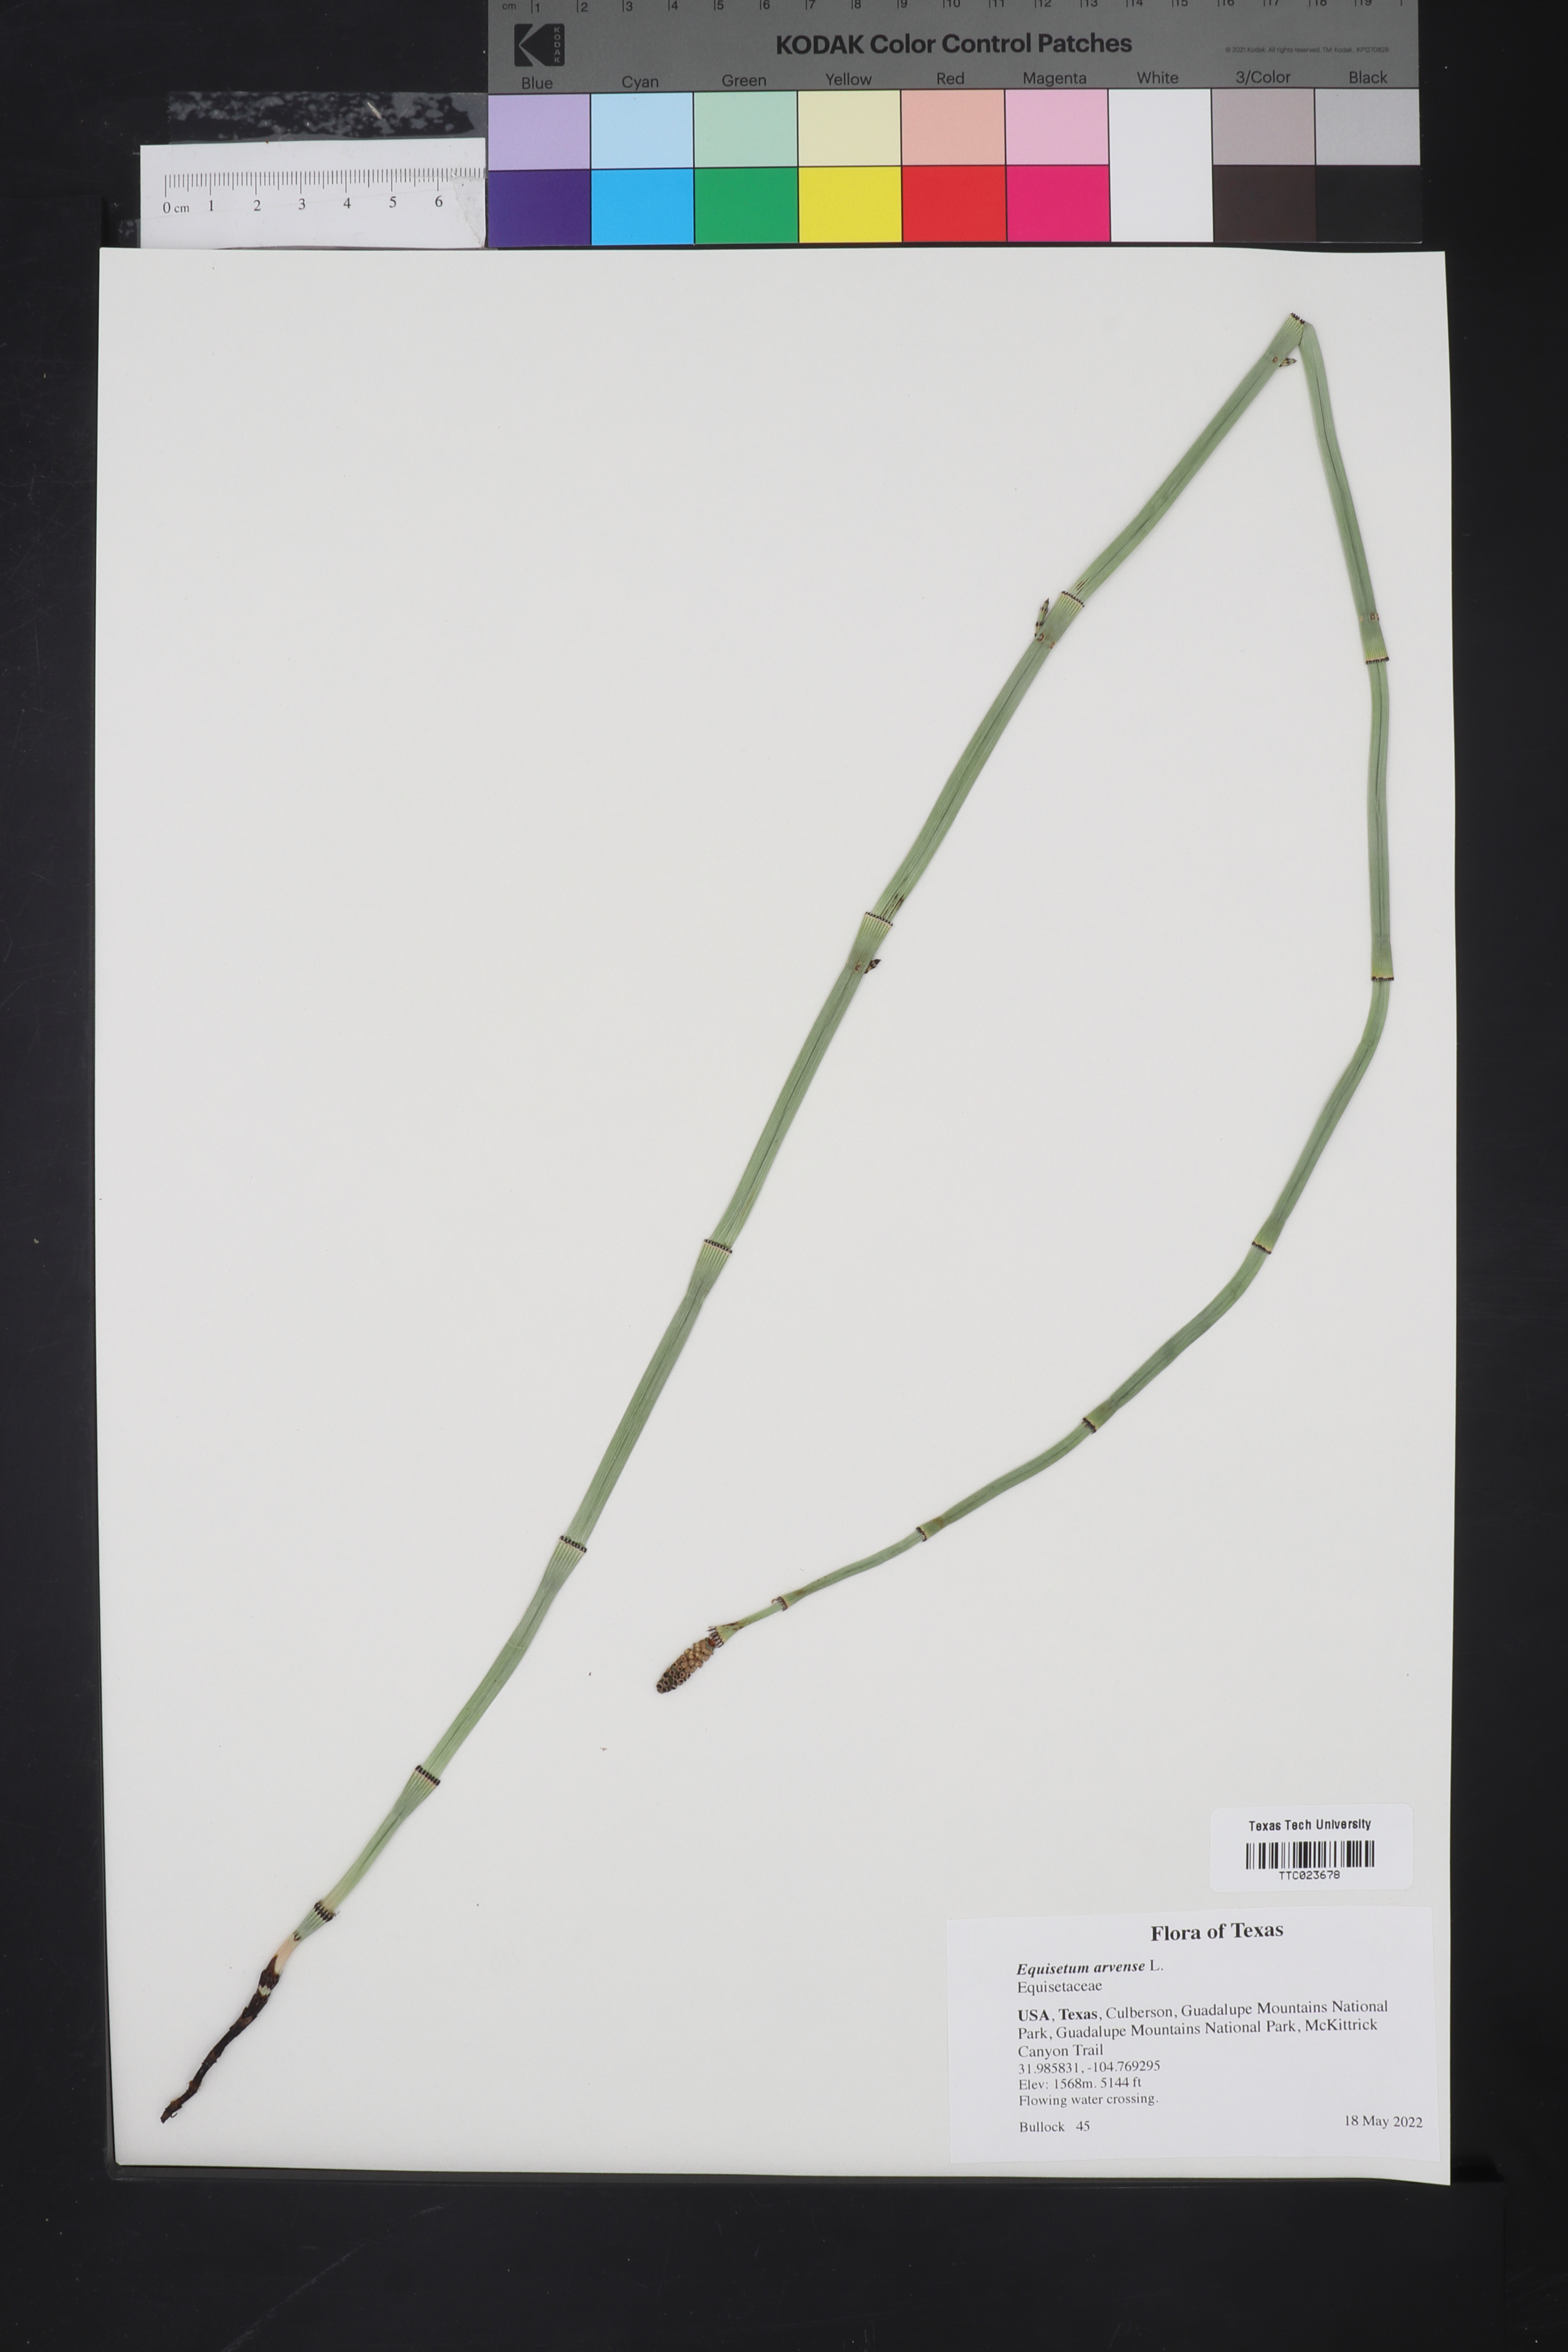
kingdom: Plantae
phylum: Tracheophyta
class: Polypodiopsida
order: Equisetales
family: Equisetaceae
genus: Equisetum
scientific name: Equisetum arvense
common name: Field horsetail
